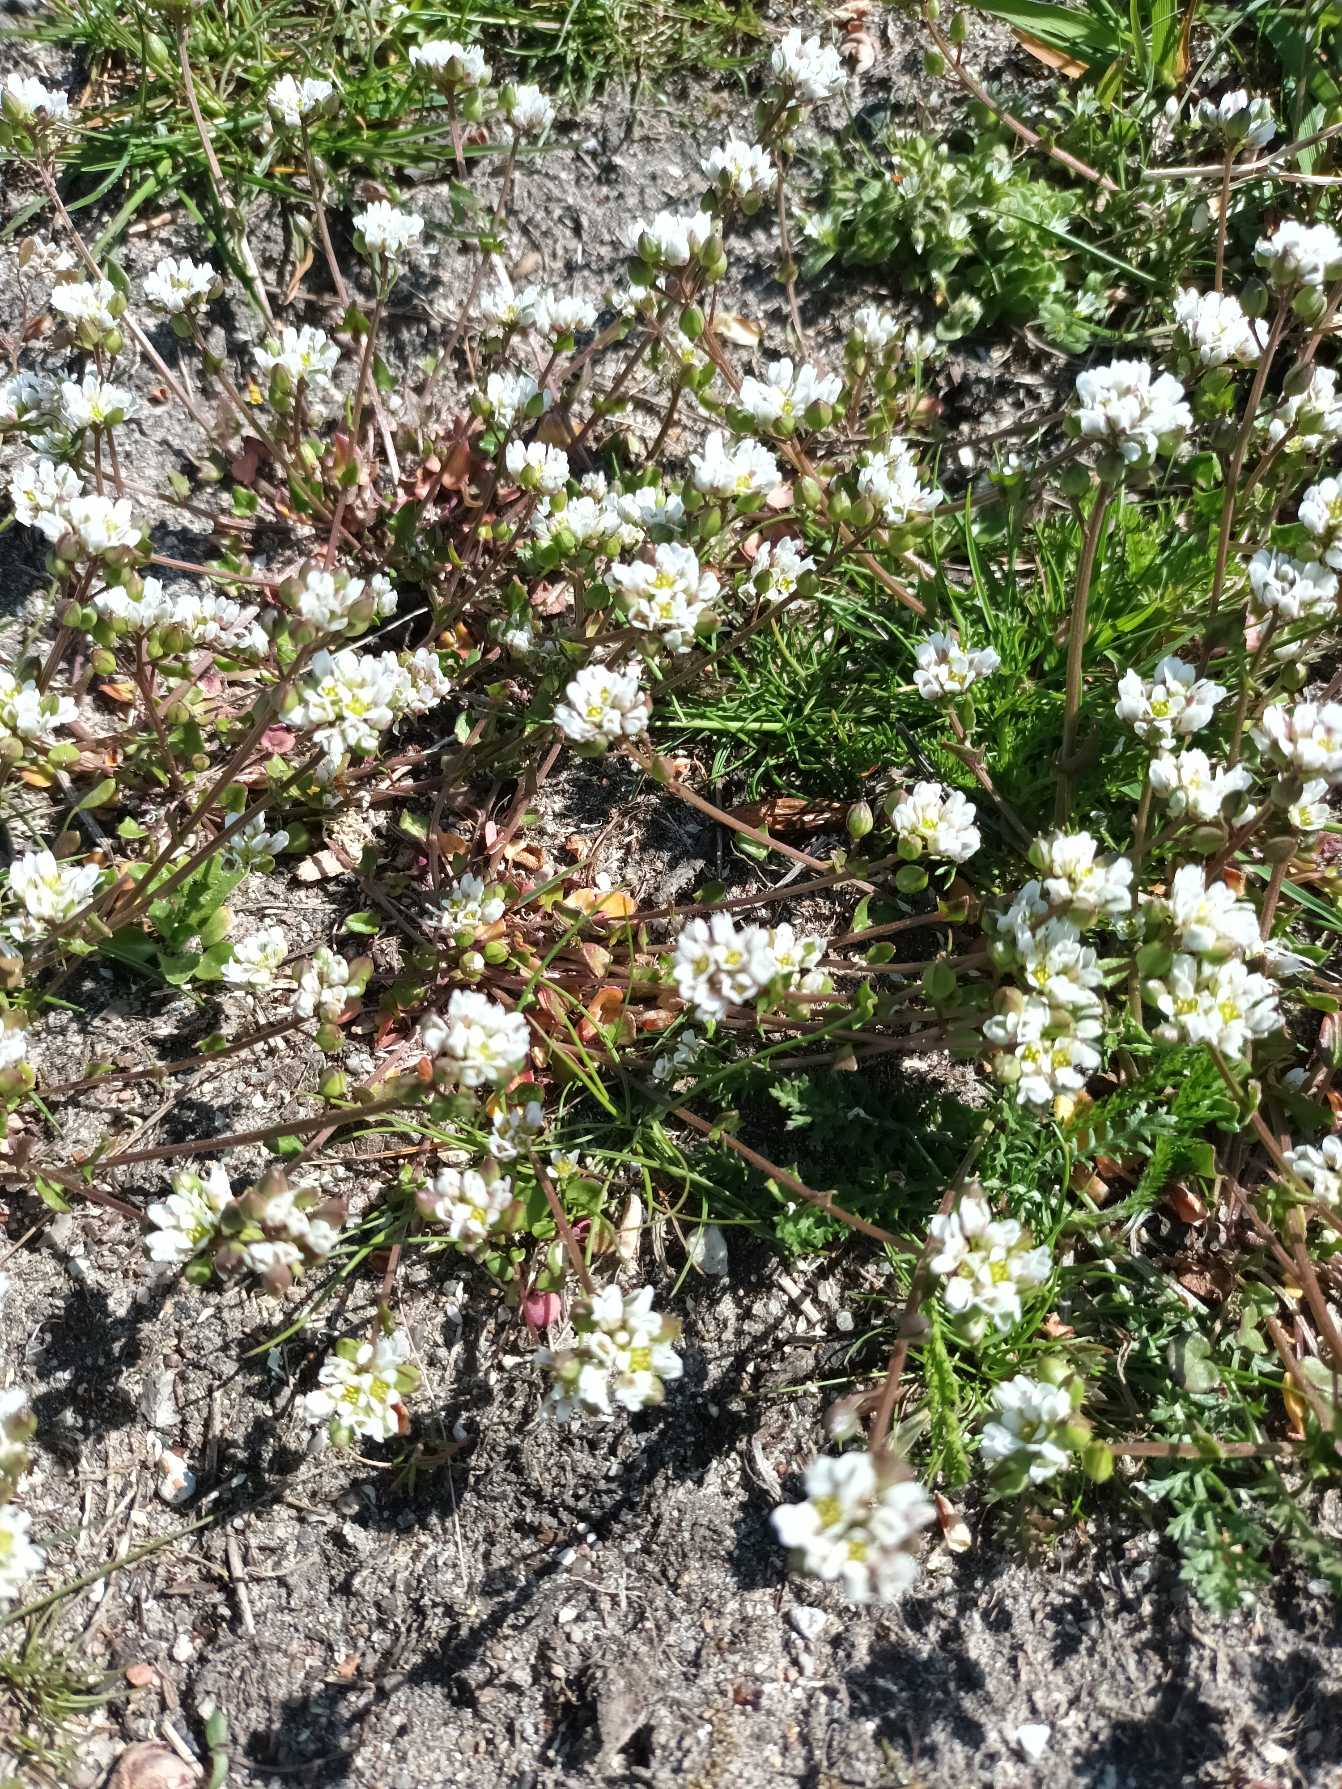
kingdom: Plantae
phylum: Tracheophyta
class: Magnoliopsida
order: Brassicales
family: Brassicaceae
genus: Cochlearia
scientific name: Cochlearia danica
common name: Dansk kokleare
